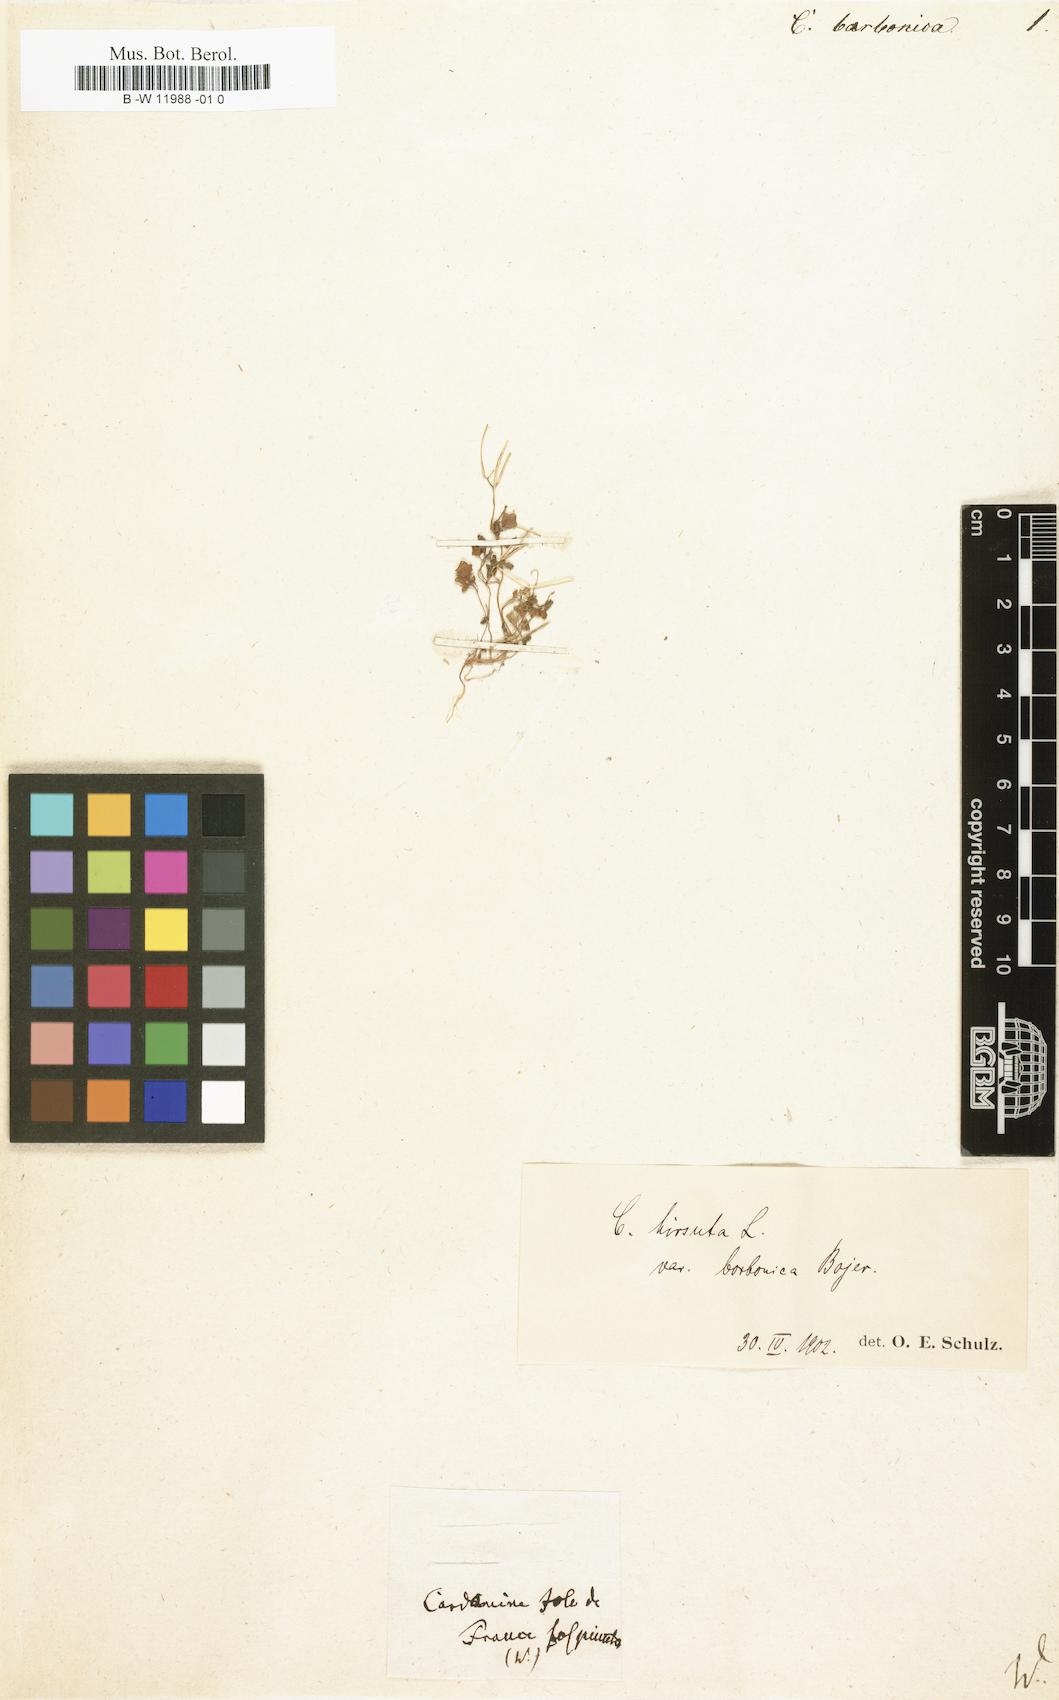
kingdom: Plantae
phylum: Tracheophyta
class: Magnoliopsida
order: Brassicales
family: Brassicaceae
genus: Cardamine
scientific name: Cardamine
